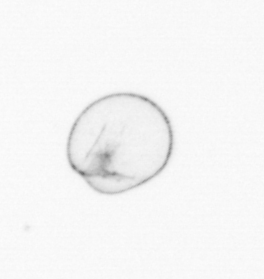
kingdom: Chromista
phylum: Myzozoa
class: Dinophyceae
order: Noctilucales
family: Noctilucaceae
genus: Noctiluca
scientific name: Noctiluca scintillans
